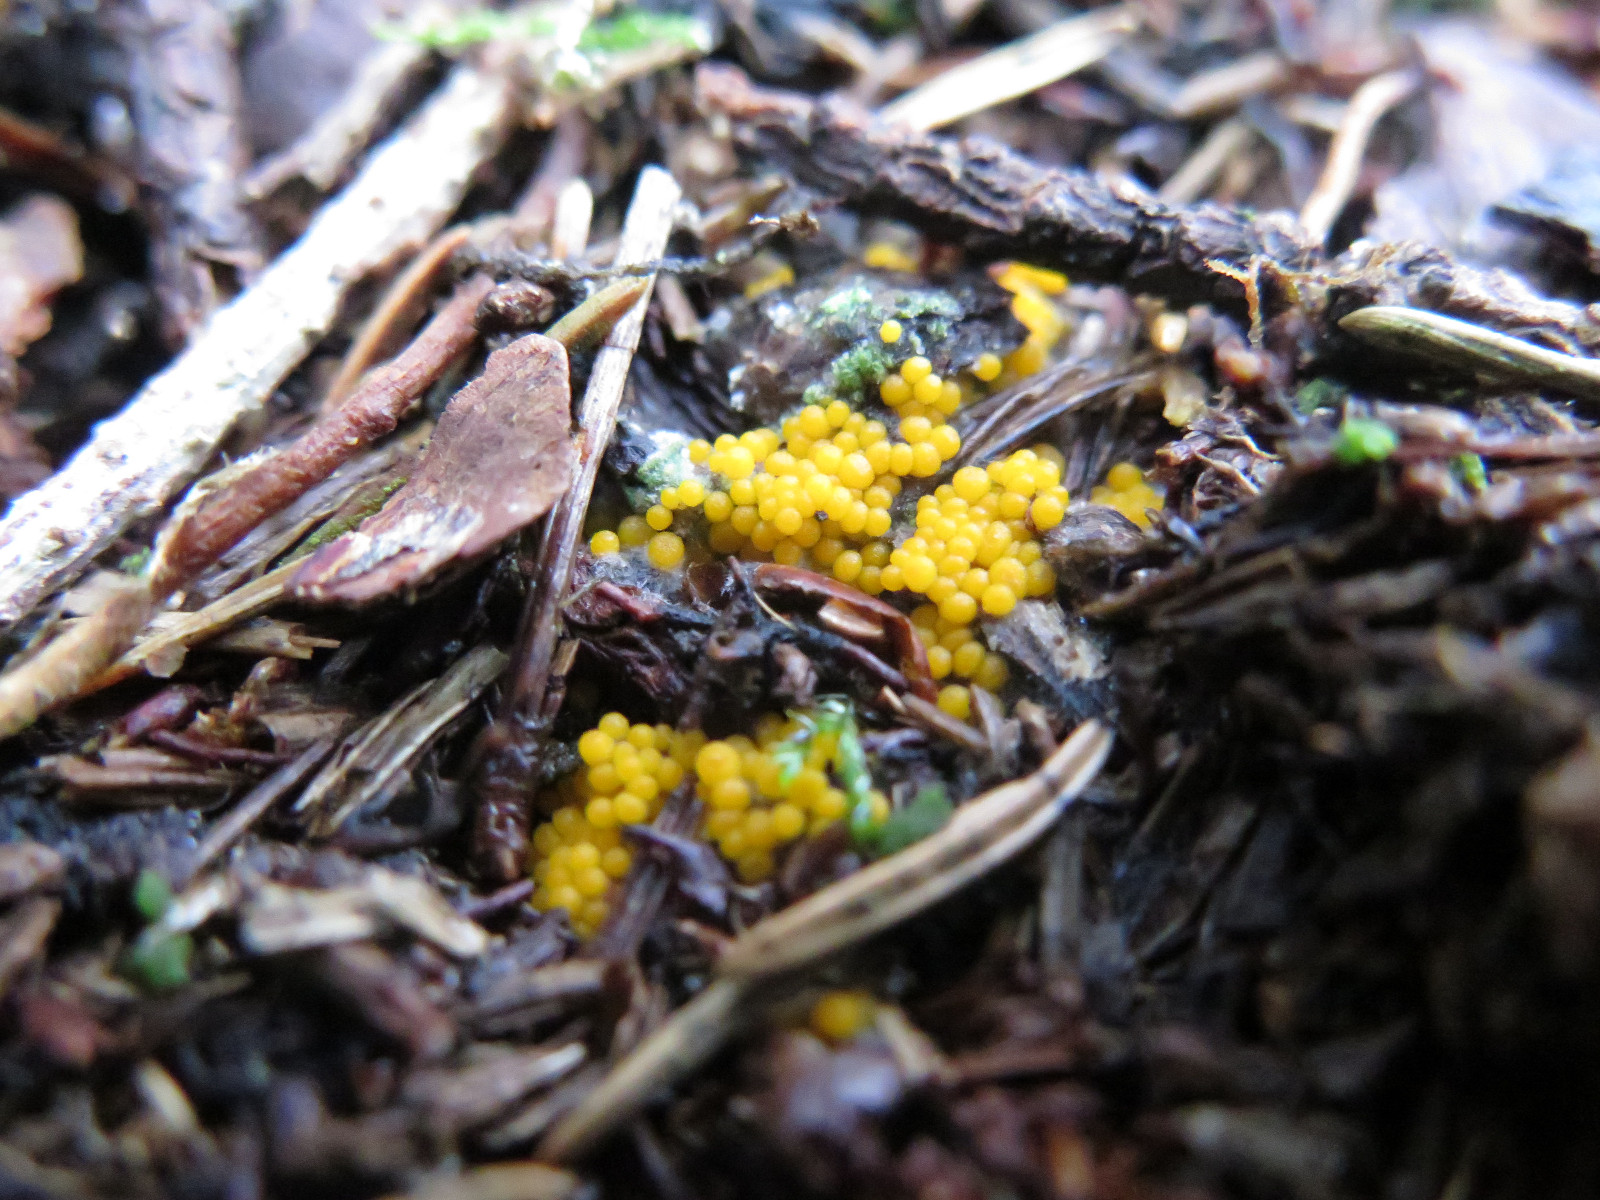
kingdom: Fungi
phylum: Ascomycota
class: Pezizomycetes
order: Pezizales
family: Pyronemataceae
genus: Byssonectria
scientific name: Byssonectria terrestris
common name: hjortebæger
